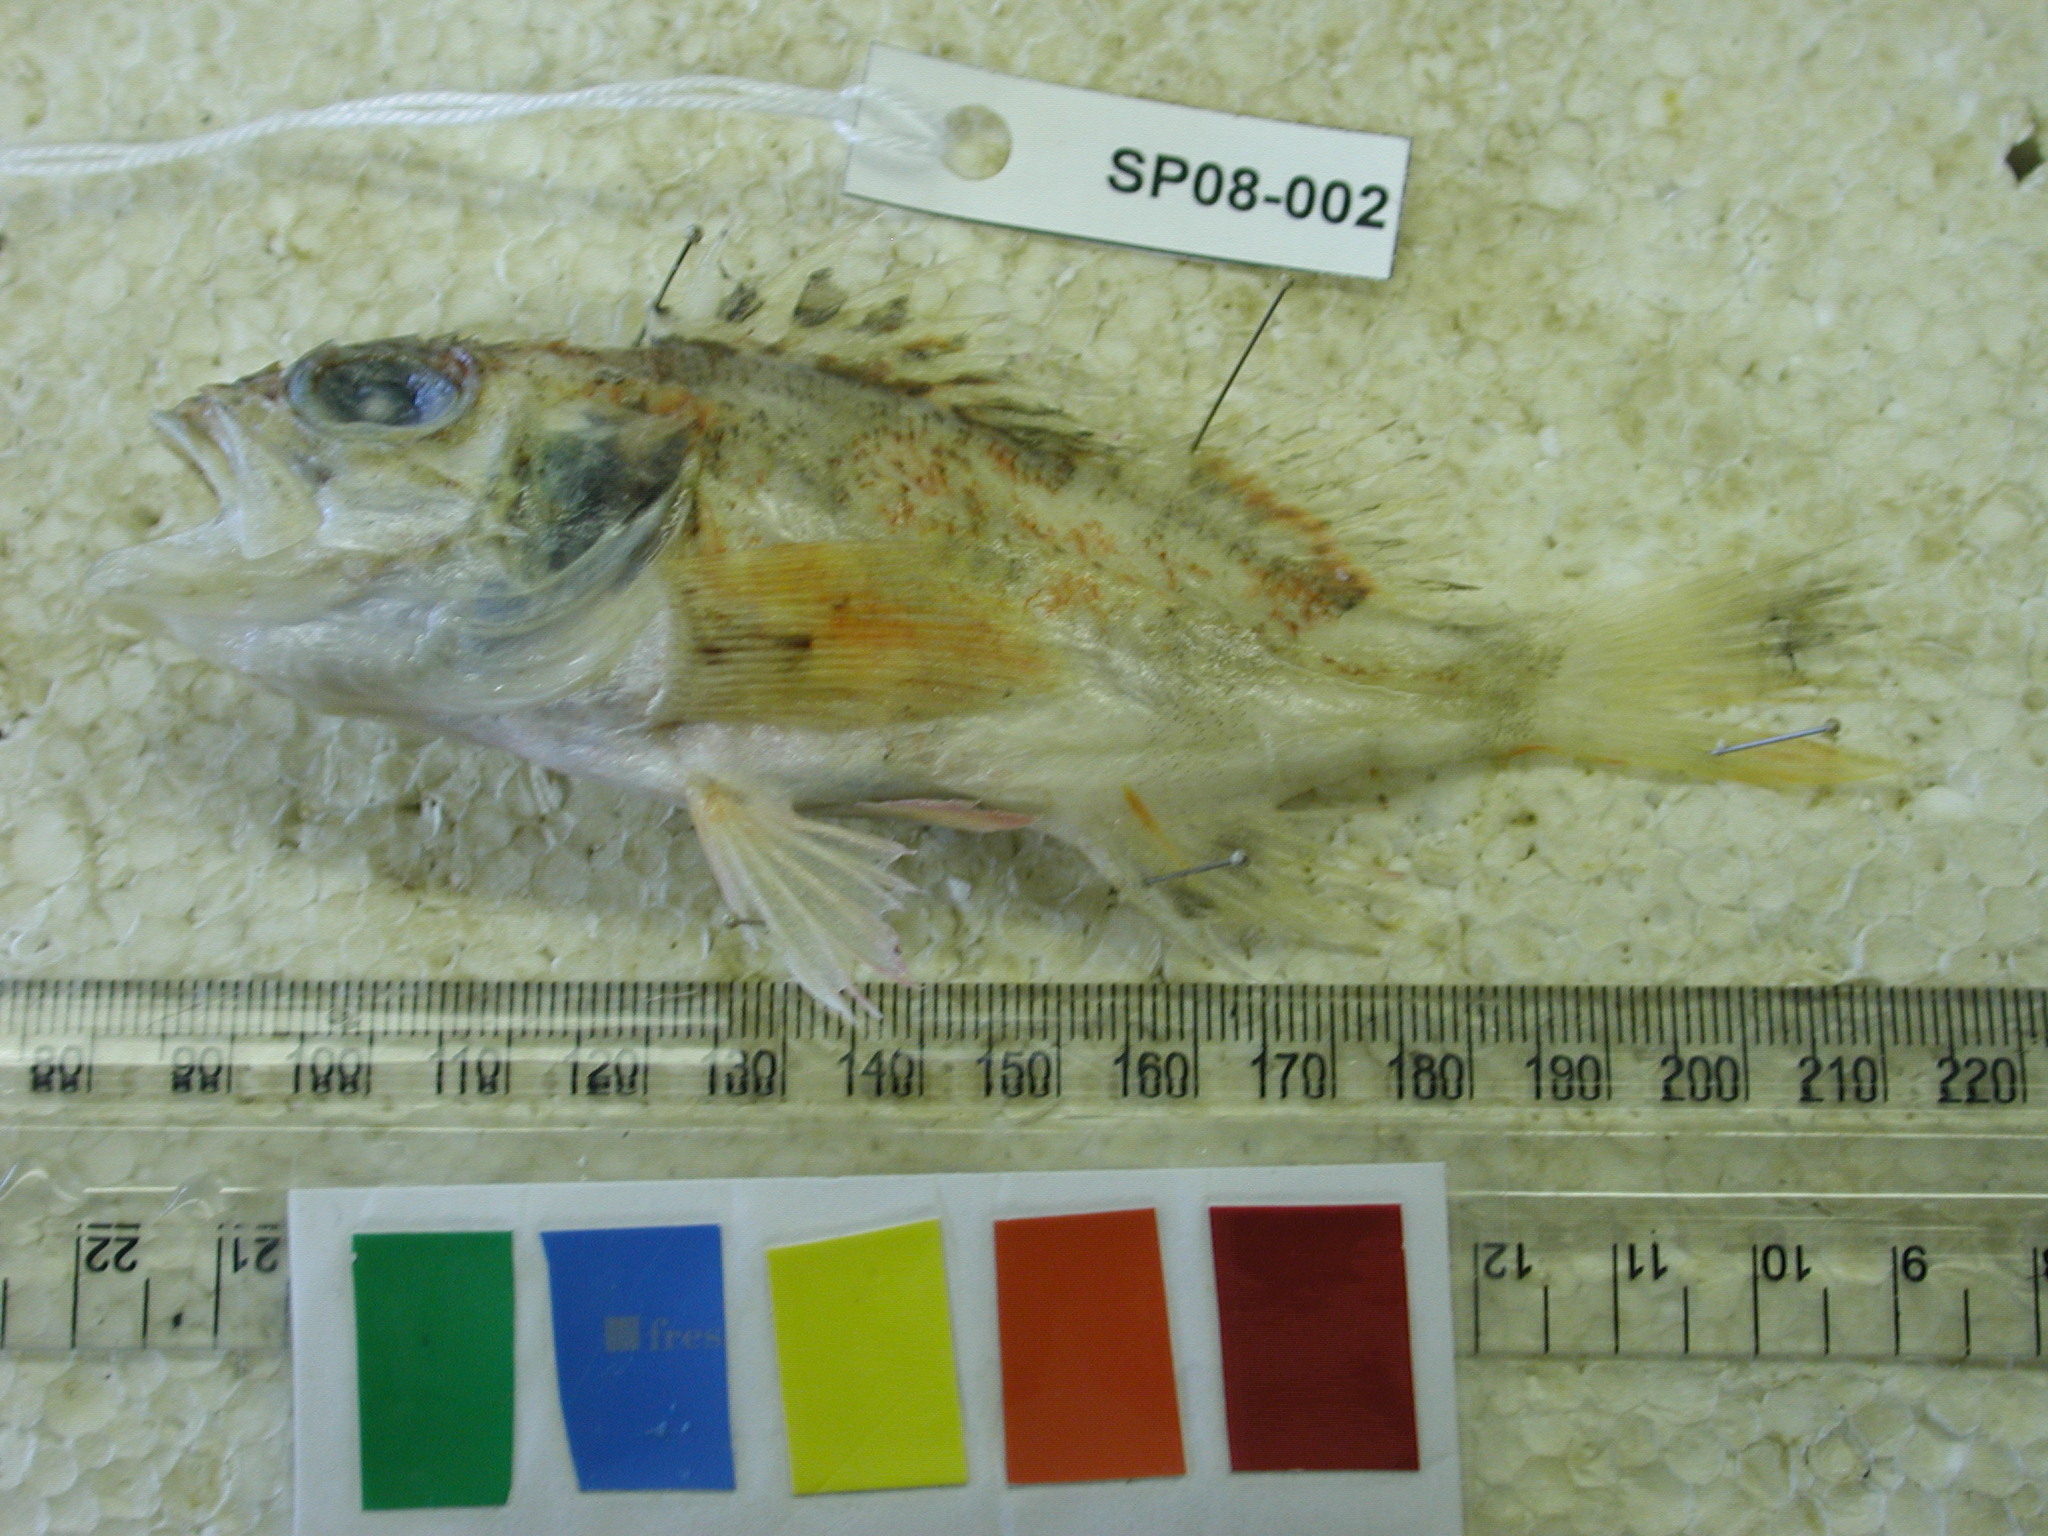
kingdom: Animalia
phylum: Chordata
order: Scorpaeniformes
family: Sebastidae
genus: Helicolenus
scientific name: Helicolenus dactylopterus
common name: Blackbelly rosefish
